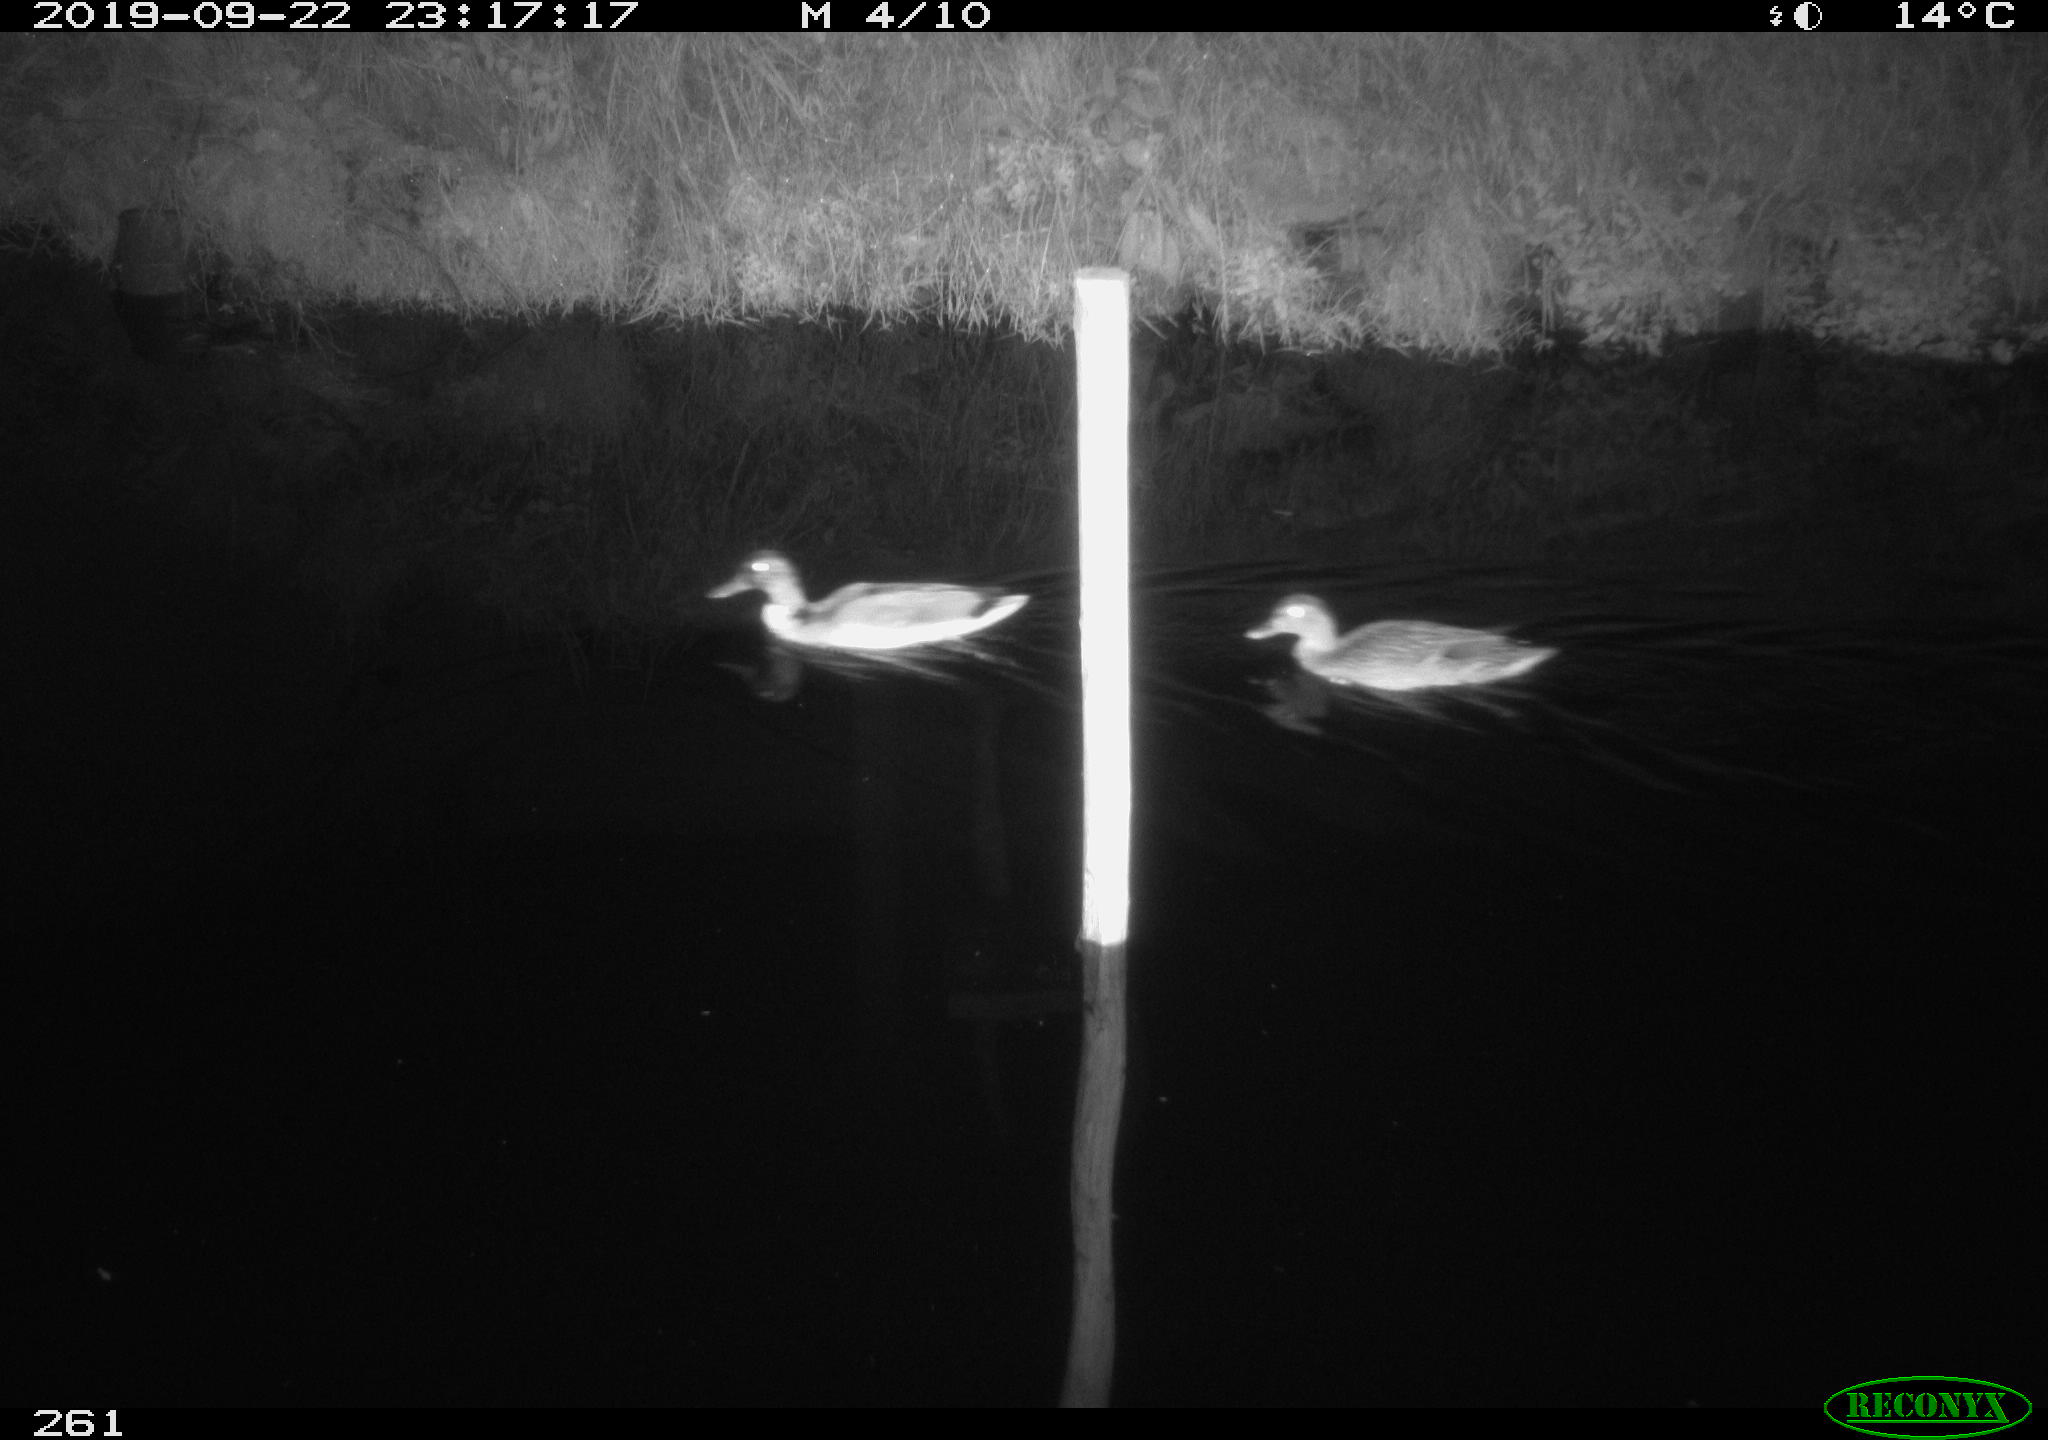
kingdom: Animalia
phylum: Chordata
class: Aves
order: Anseriformes
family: Anatidae
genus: Anas
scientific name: Anas platyrhynchos
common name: Mallard
